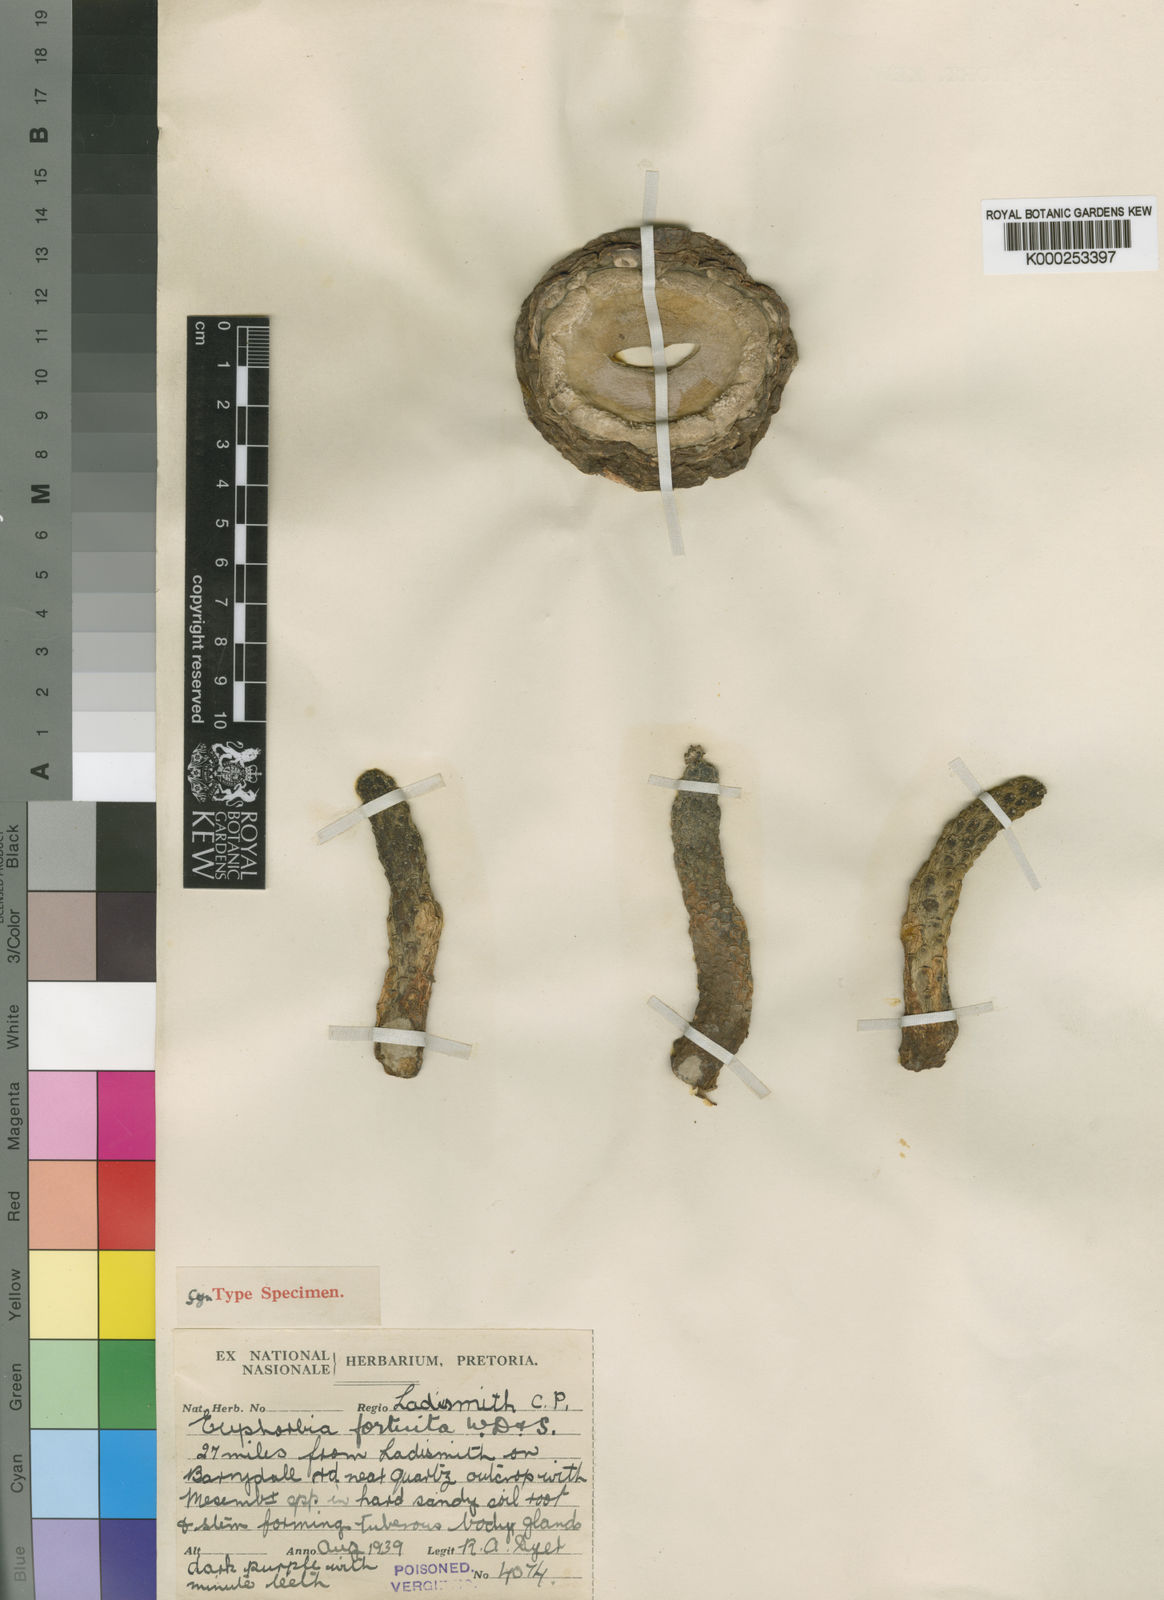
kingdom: Plantae
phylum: Tracheophyta
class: Magnoliopsida
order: Malpighiales
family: Euphorbiaceae
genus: Euphorbia
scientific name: Euphorbia
